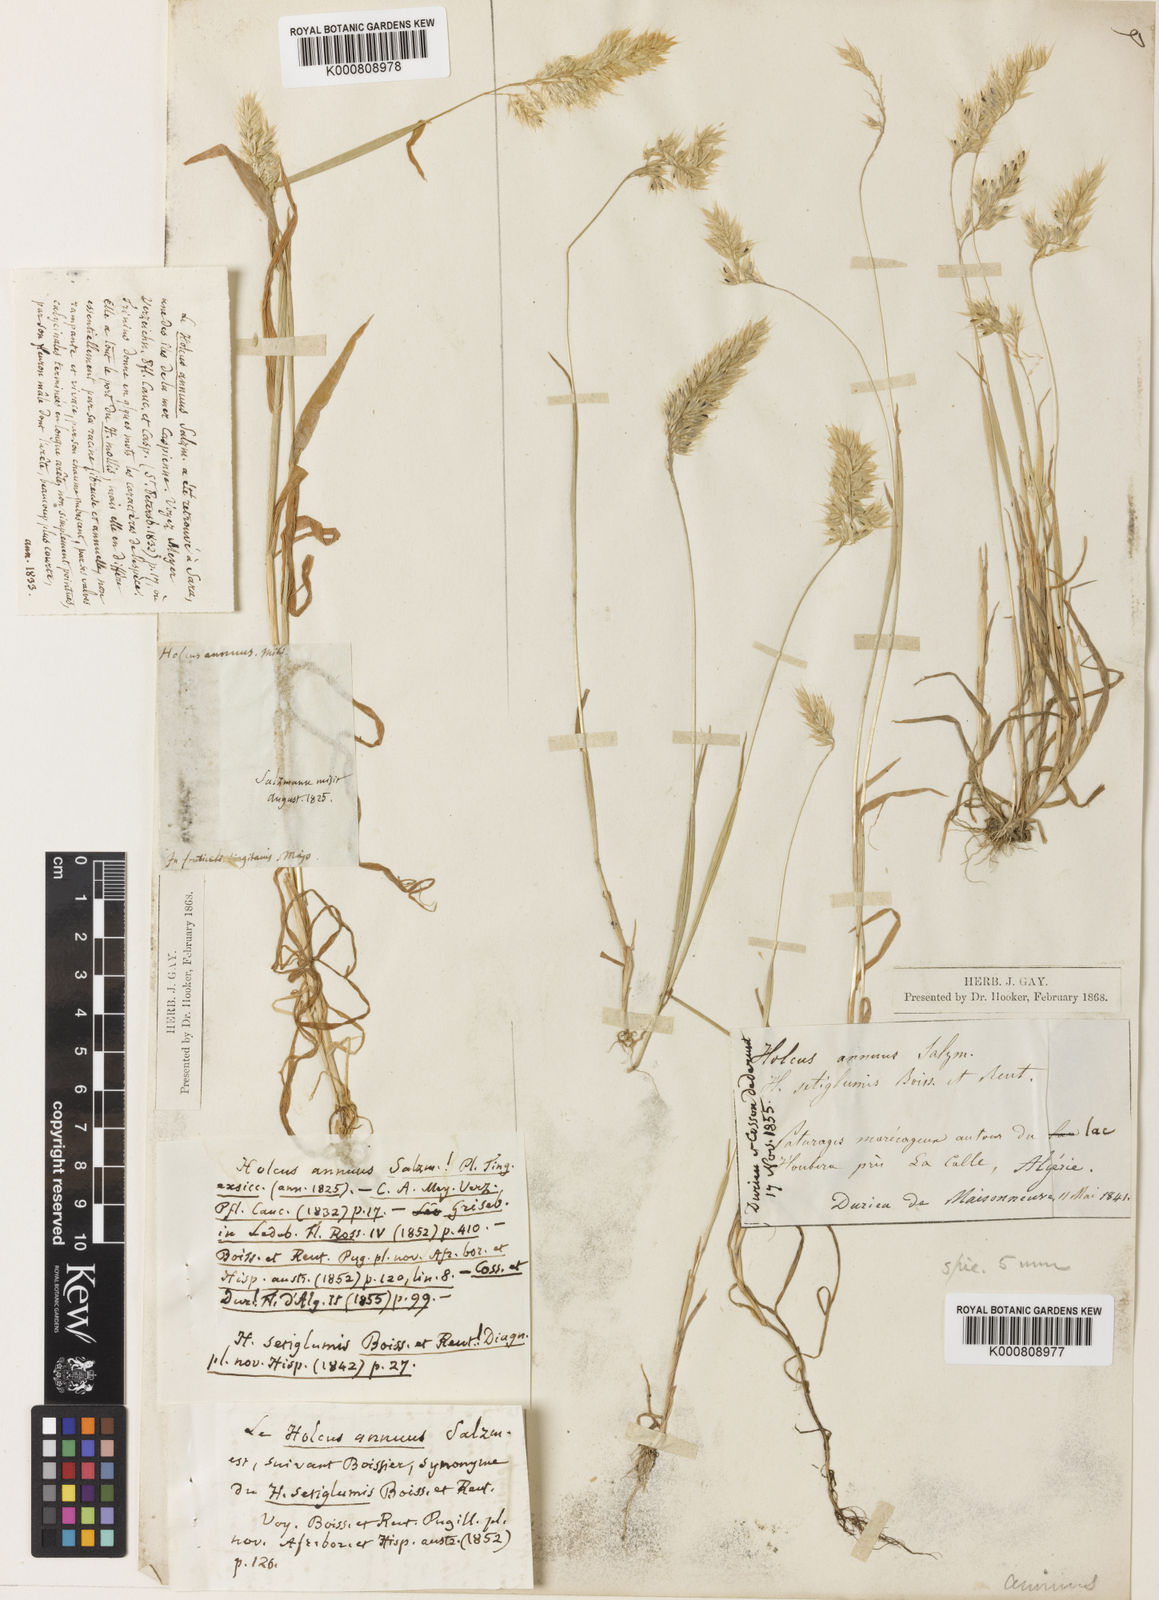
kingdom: Plantae
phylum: Tracheophyta
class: Liliopsida
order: Poales
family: Poaceae
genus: Holcus
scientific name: Holcus annuus
